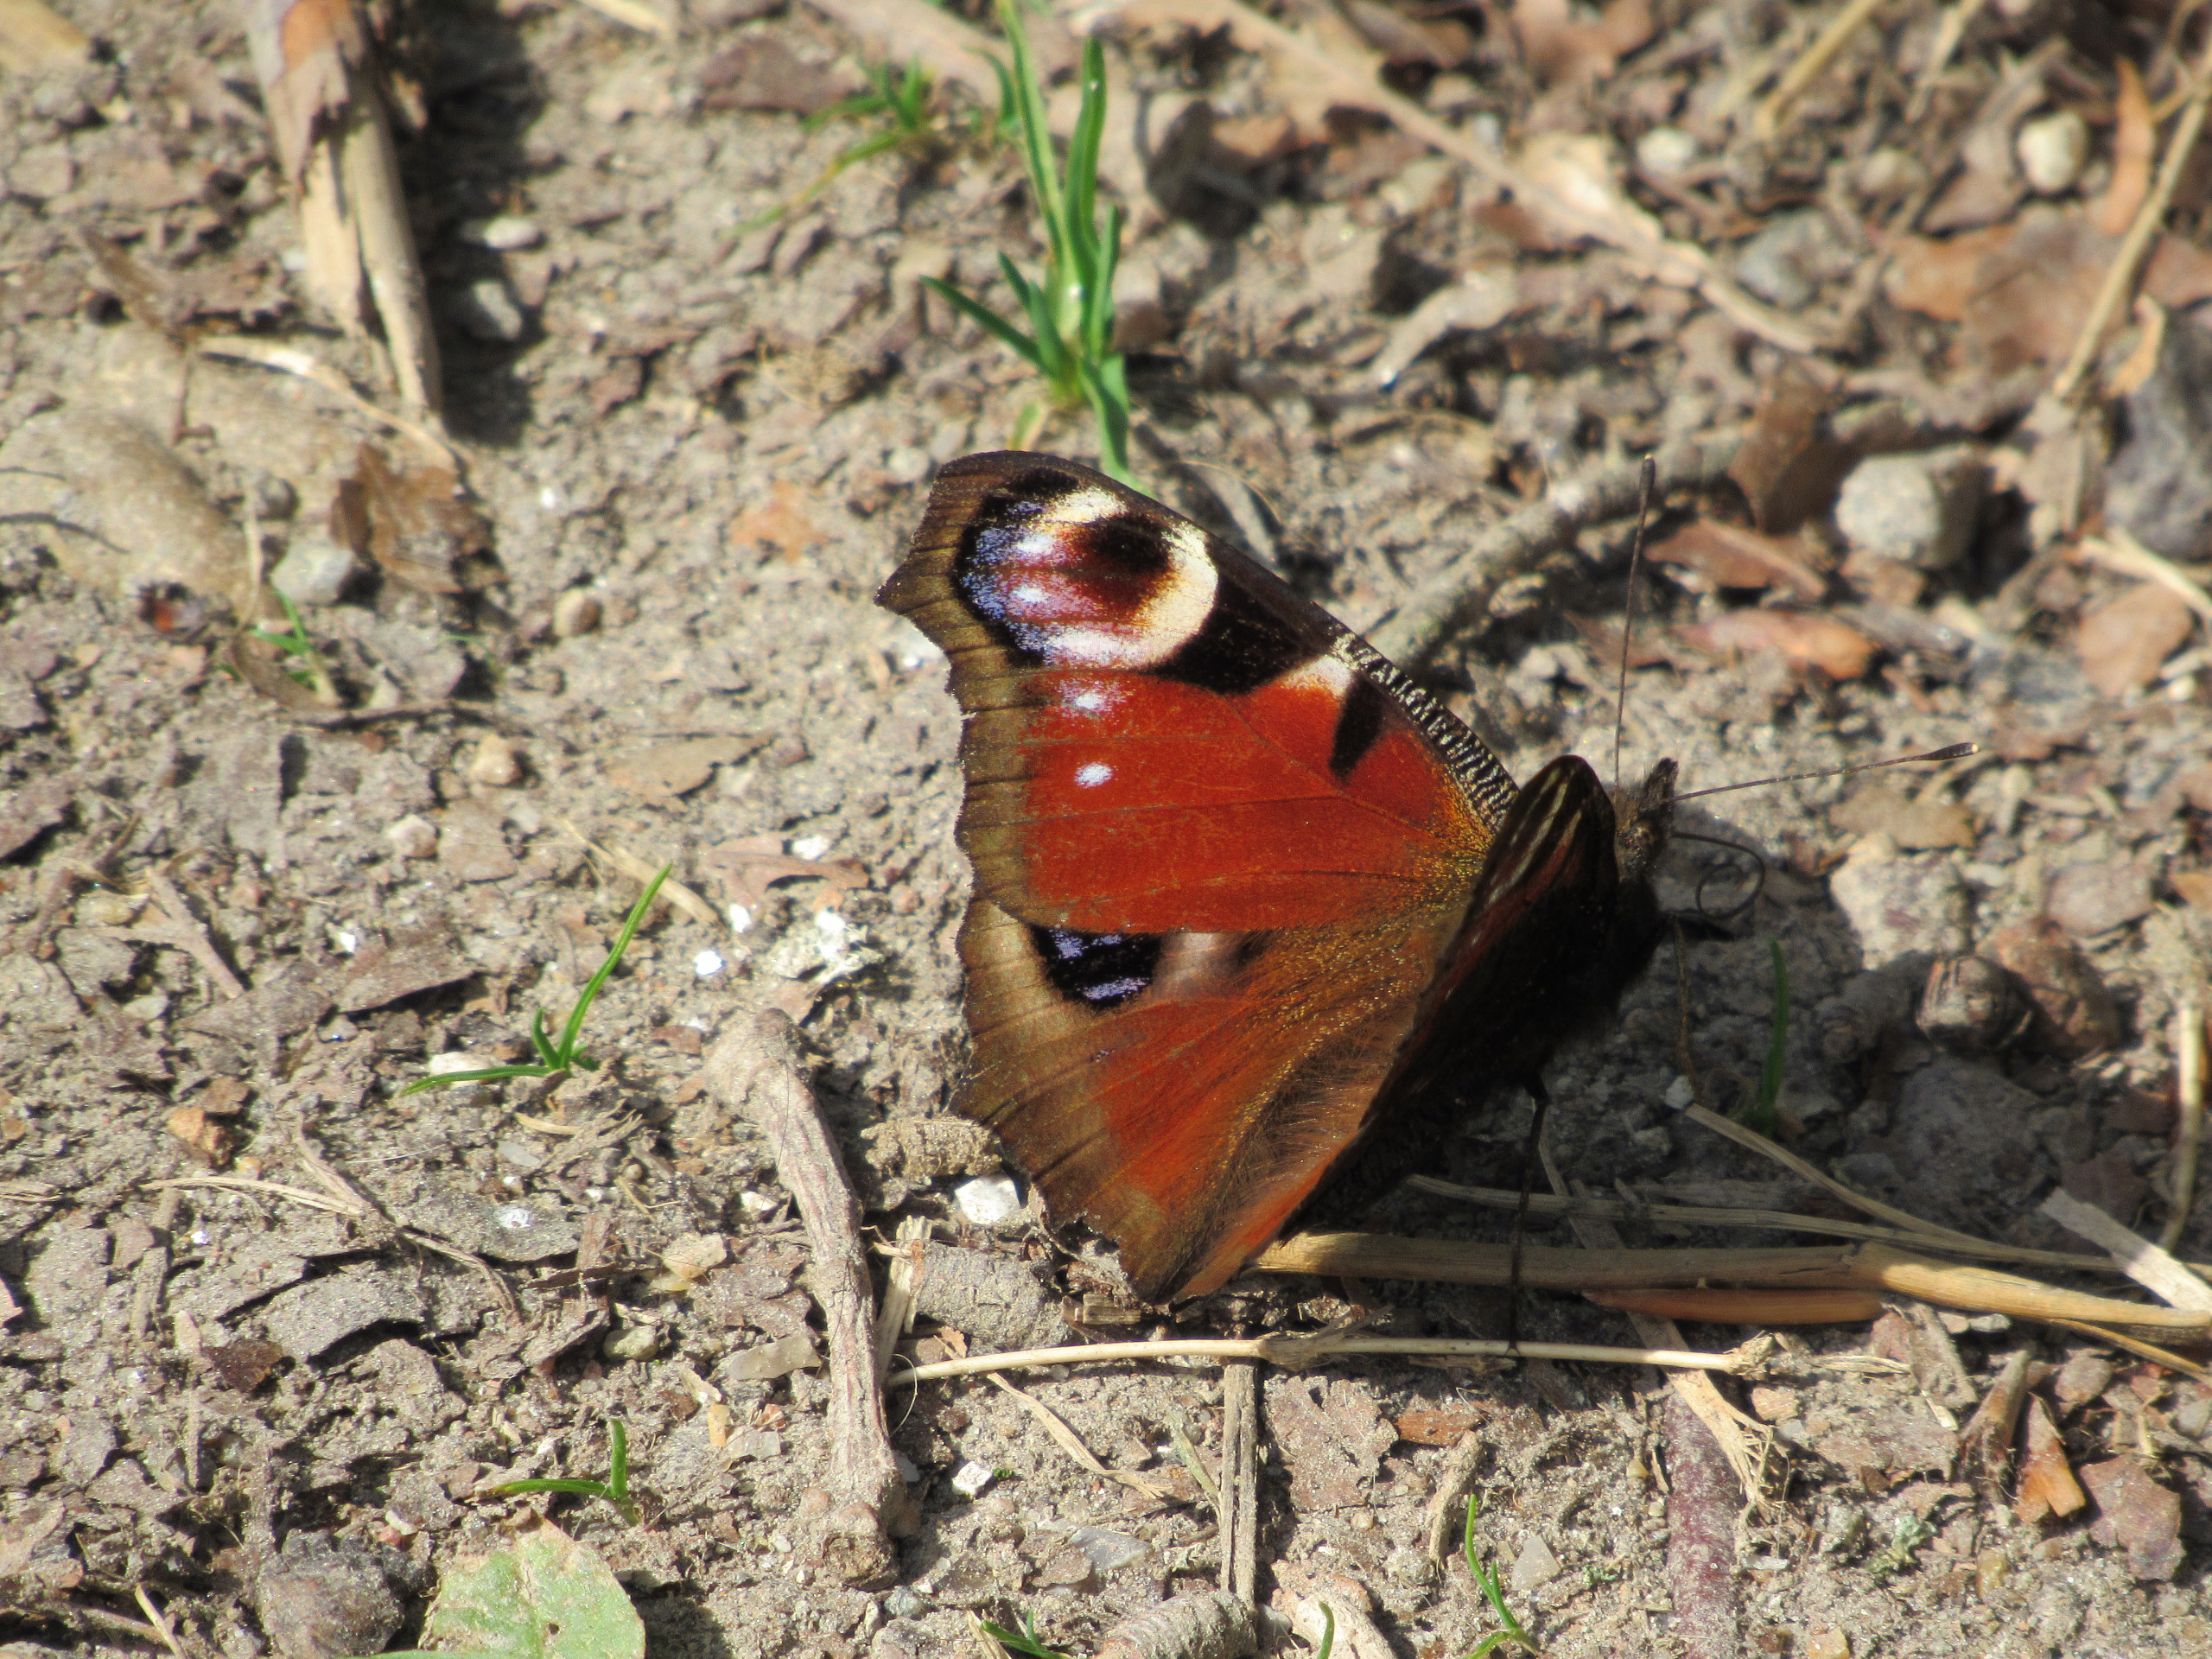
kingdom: Animalia
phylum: Arthropoda
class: Insecta
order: Lepidoptera
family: Nymphalidae
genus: Aglais
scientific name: Aglais io
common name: Dagpåfugleøje
